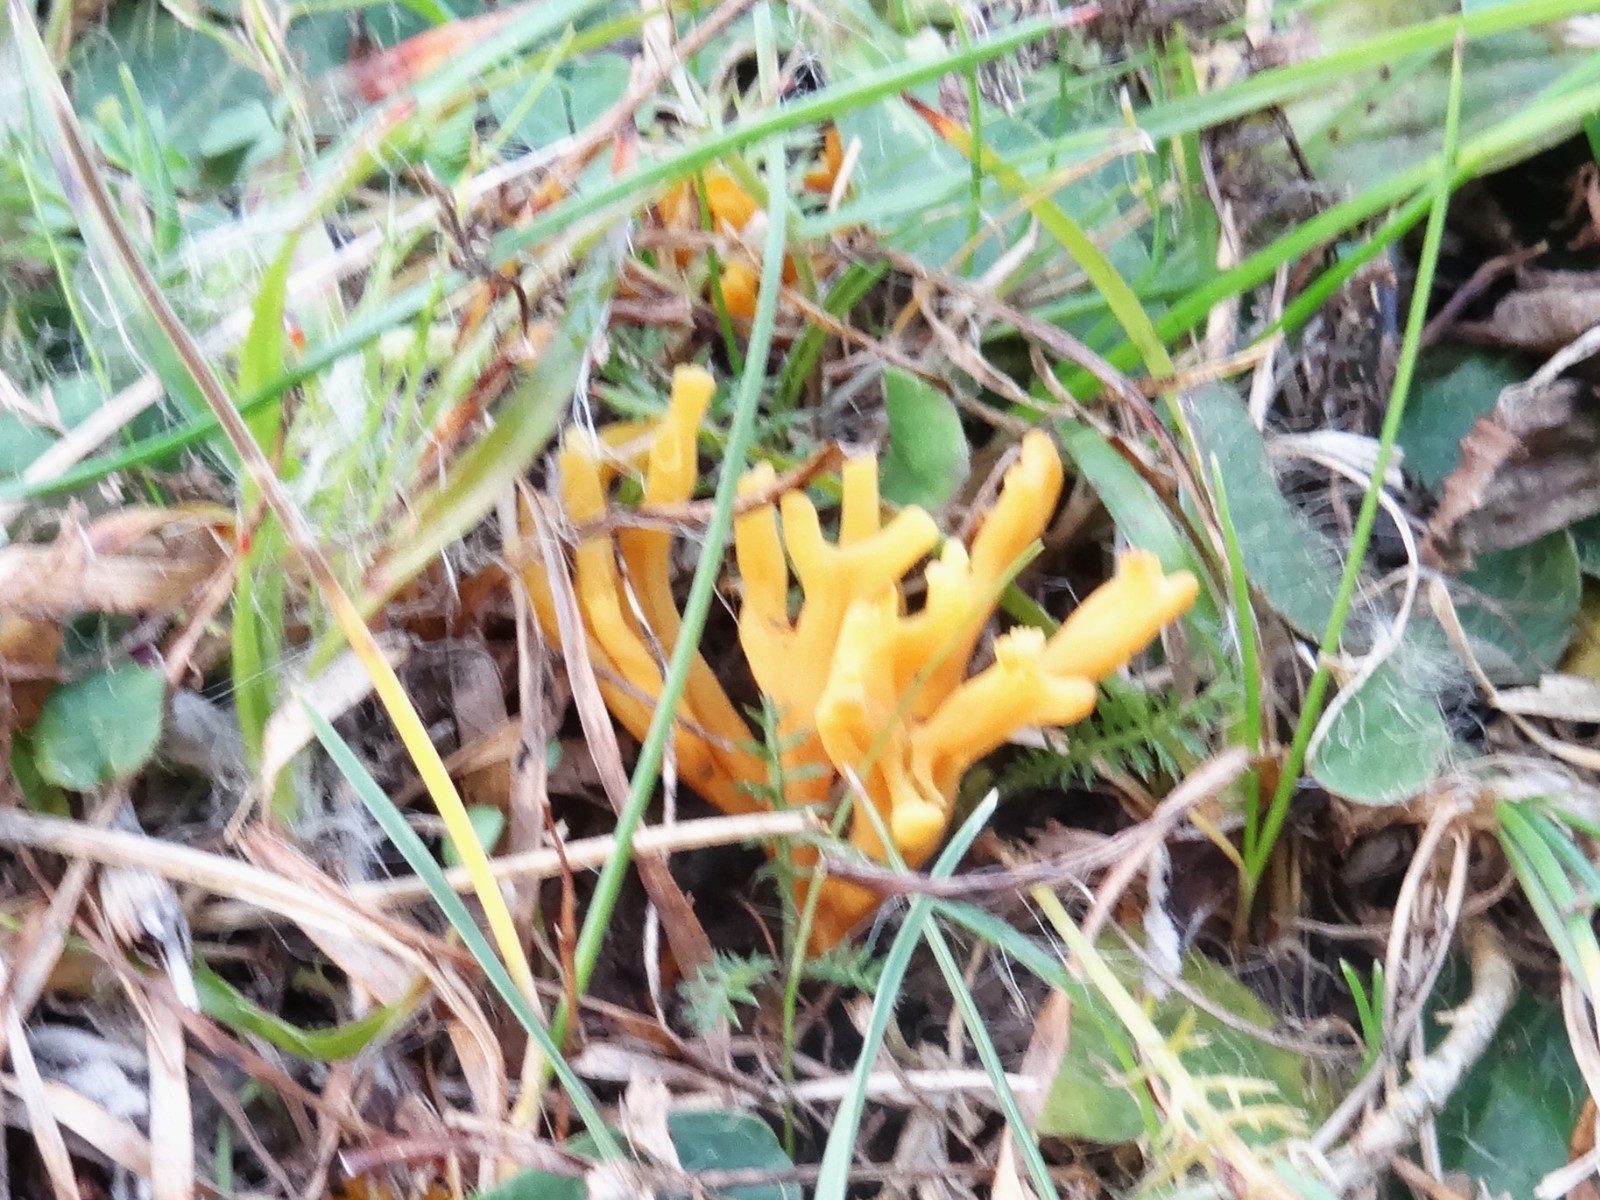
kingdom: Fungi
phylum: Basidiomycota
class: Agaricomycetes
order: Agaricales
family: Clavariaceae
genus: Clavulinopsis
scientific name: Clavulinopsis corniculata
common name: eng-køllesvamp
